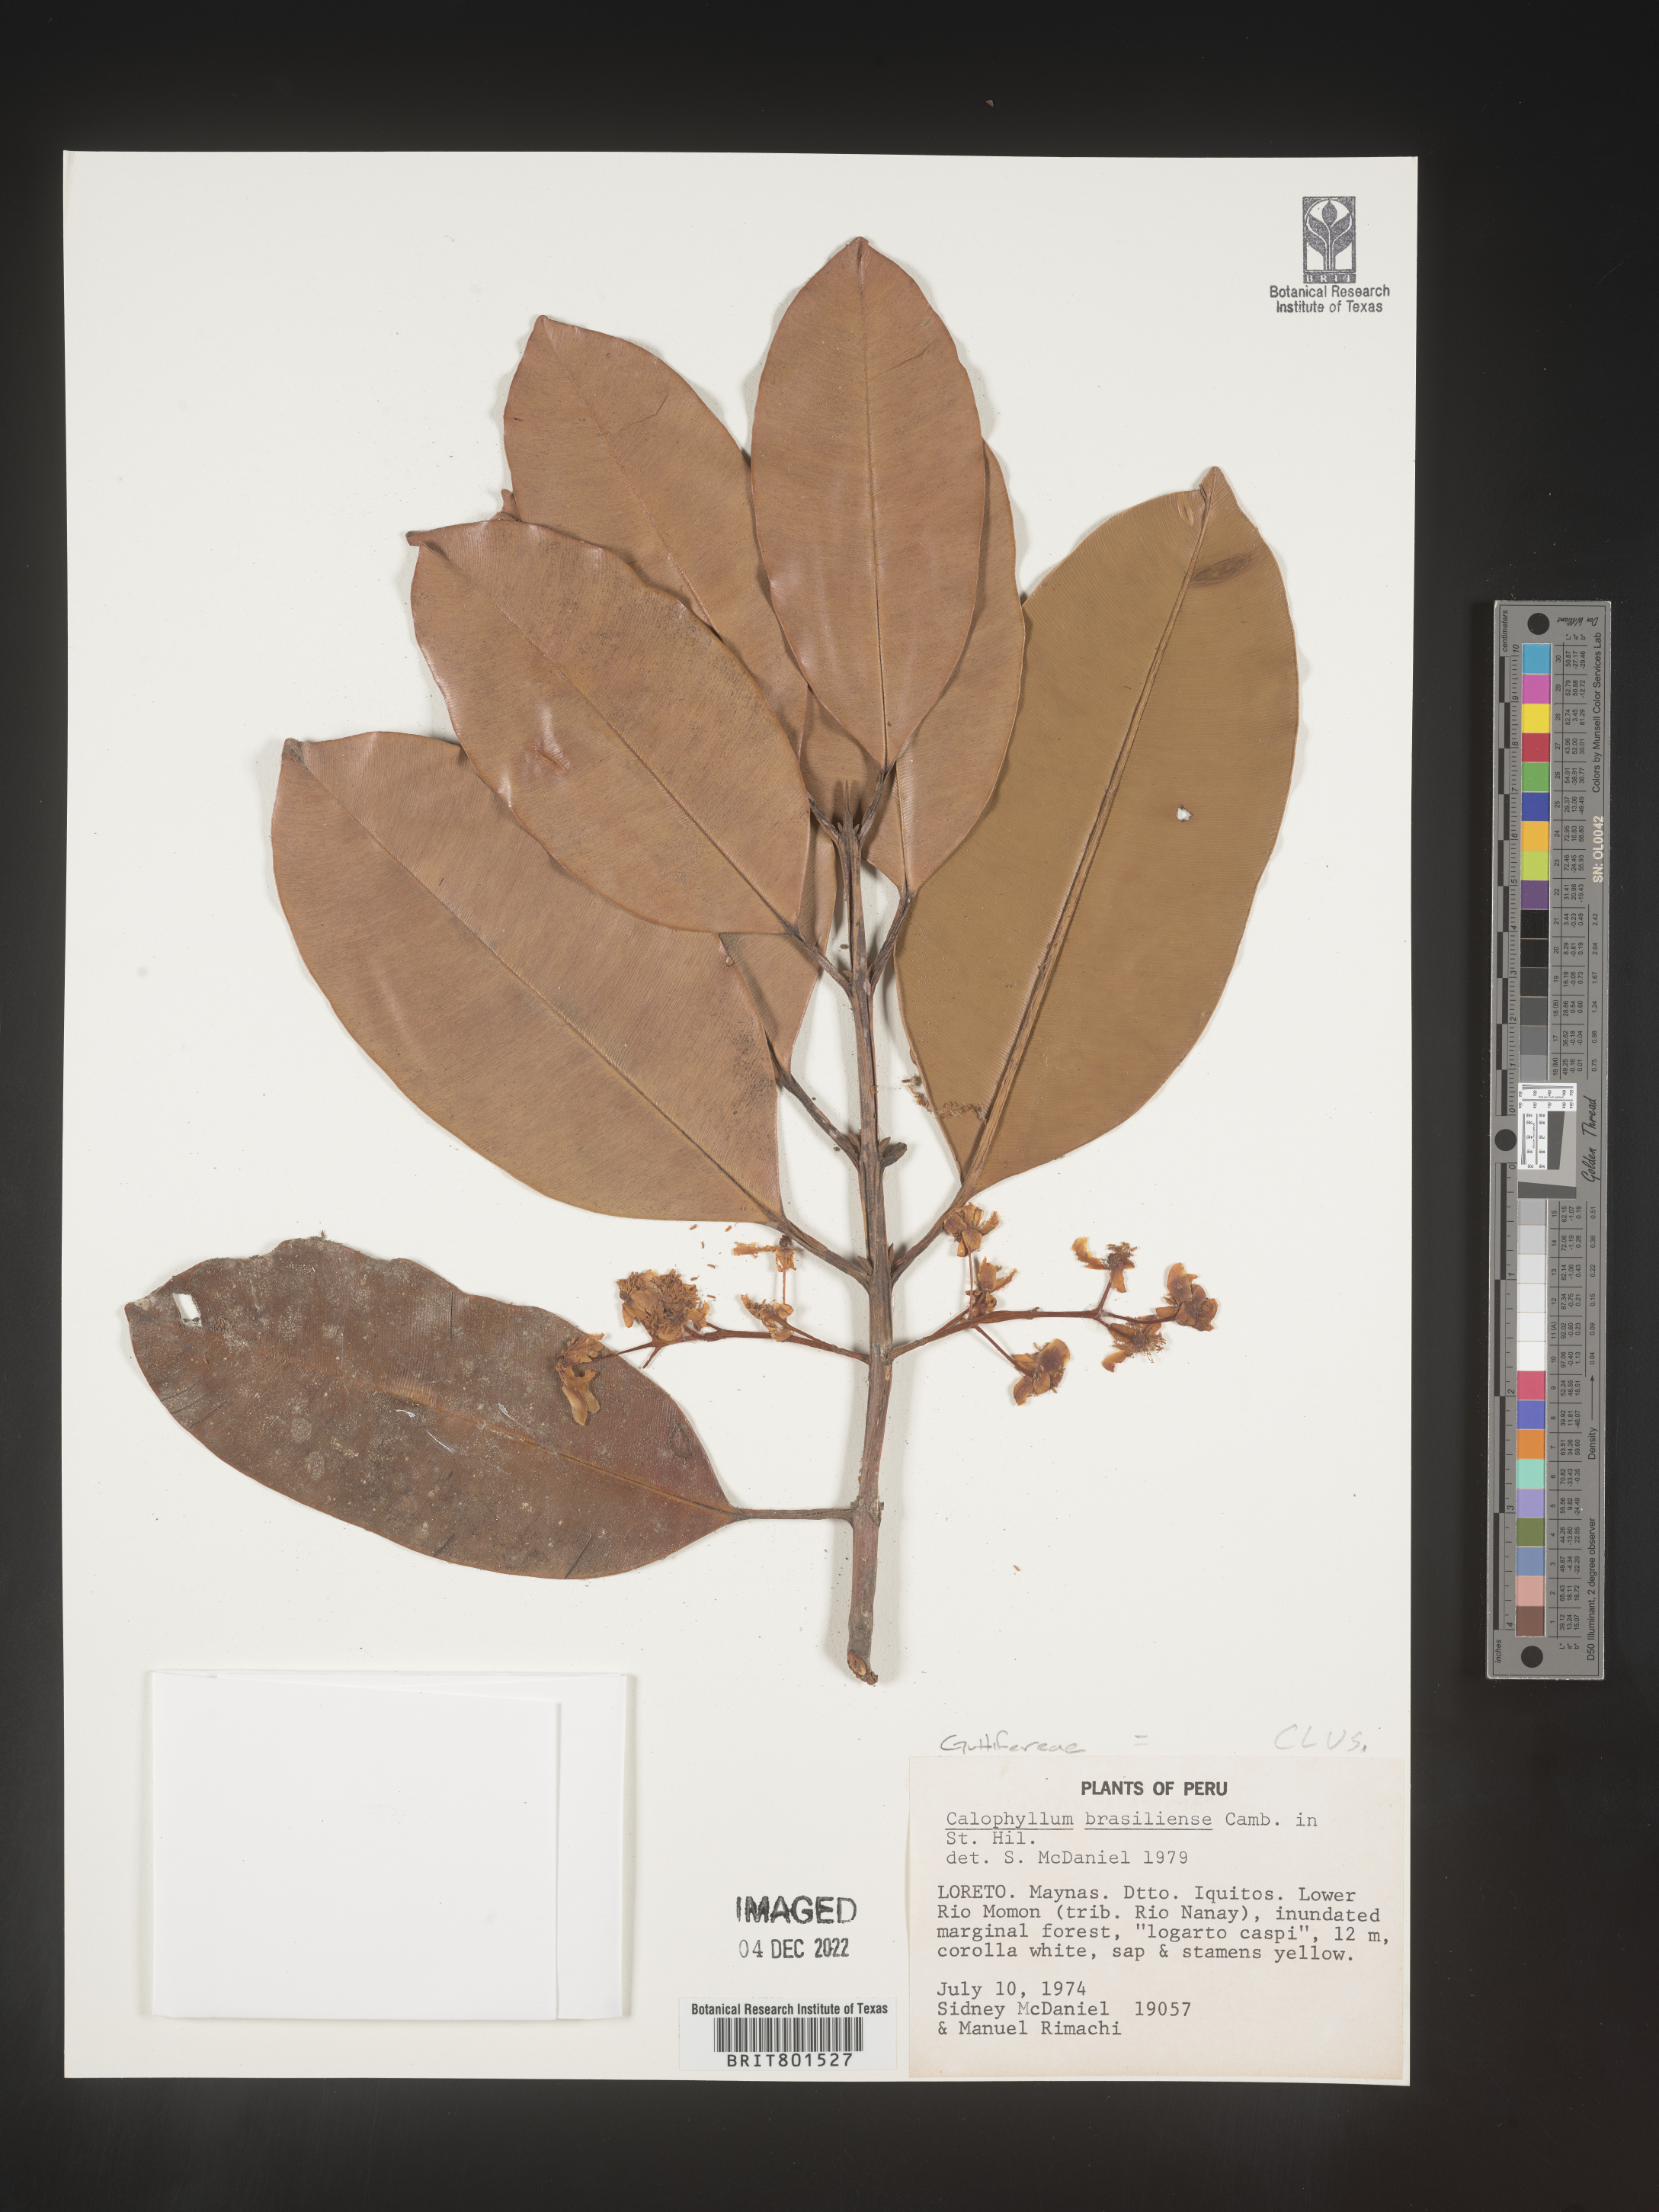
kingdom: Plantae
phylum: Tracheophyta
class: Magnoliopsida
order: Malpighiales
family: Calophyllaceae
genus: Calophyllum
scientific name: Calophyllum brasiliense
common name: Santa maria
